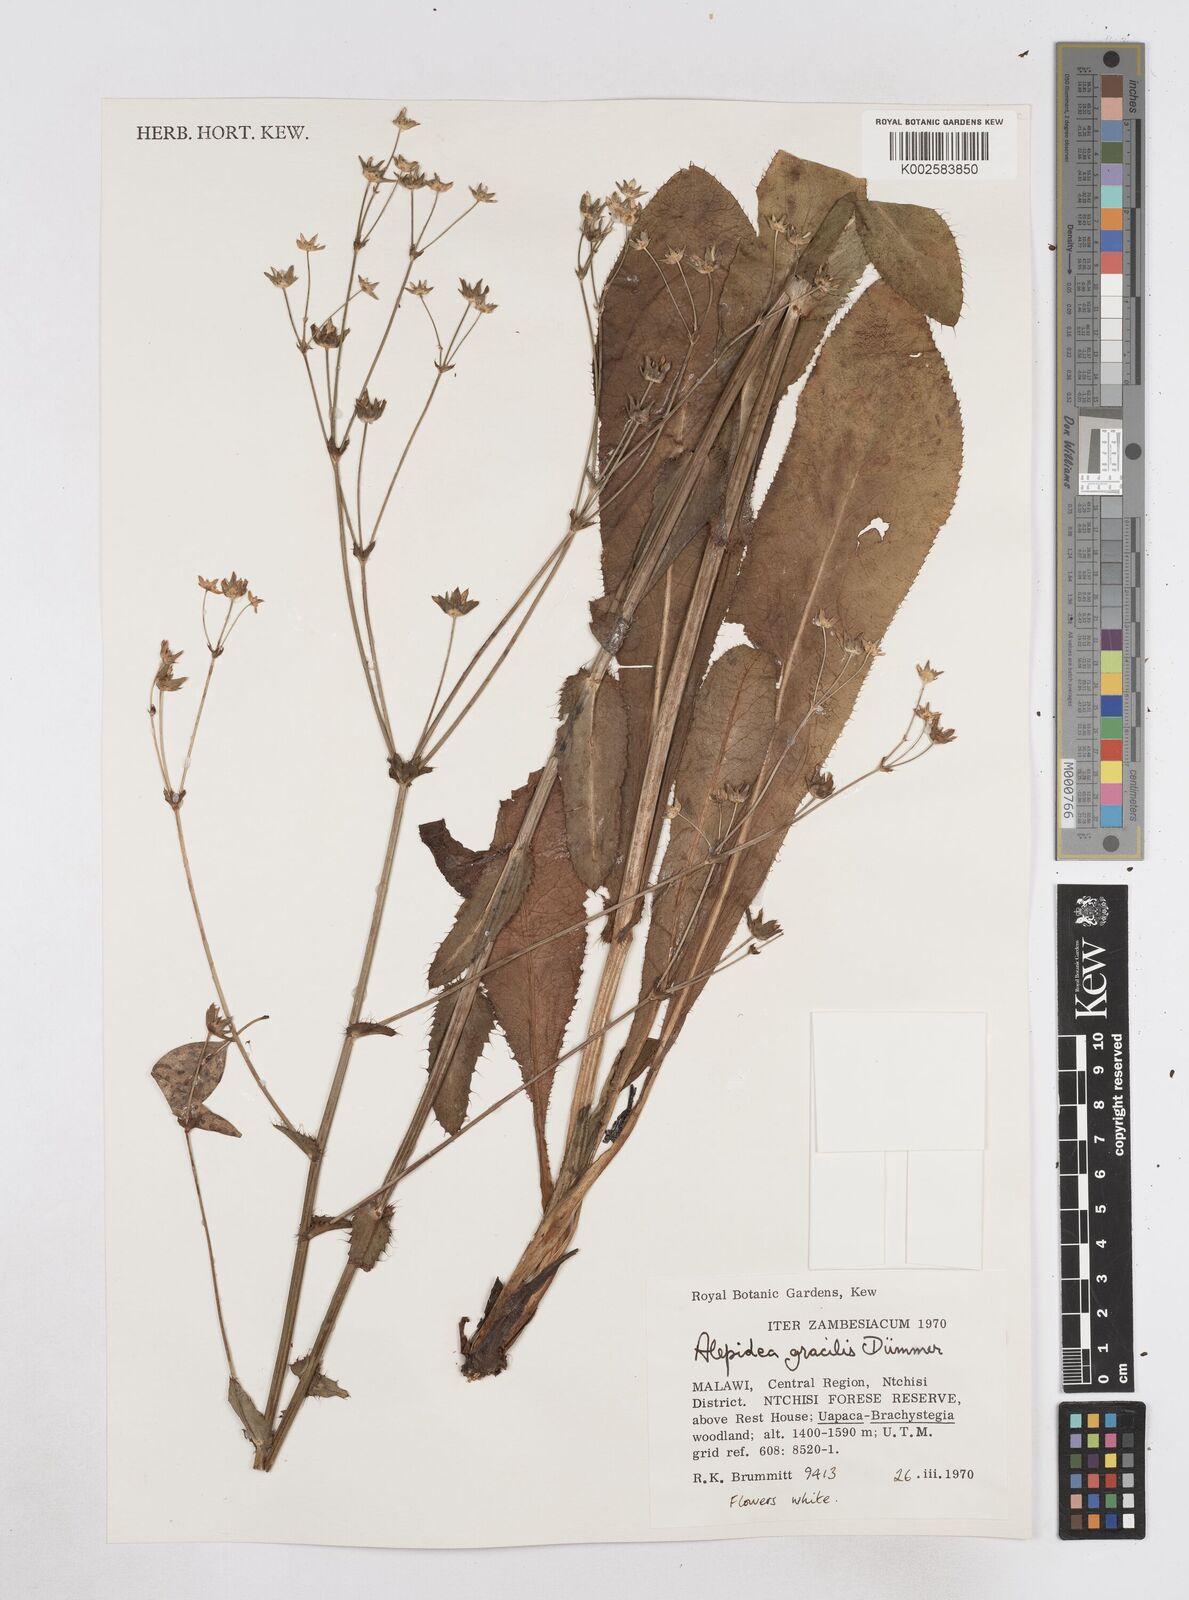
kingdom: Plantae
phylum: Tracheophyta
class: Magnoliopsida
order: Apiales
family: Apiaceae
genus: Alepidea
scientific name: Alepidea peduncularis
